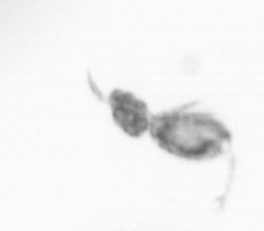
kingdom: Animalia
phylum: Arthropoda
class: Copepoda
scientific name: Copepoda
